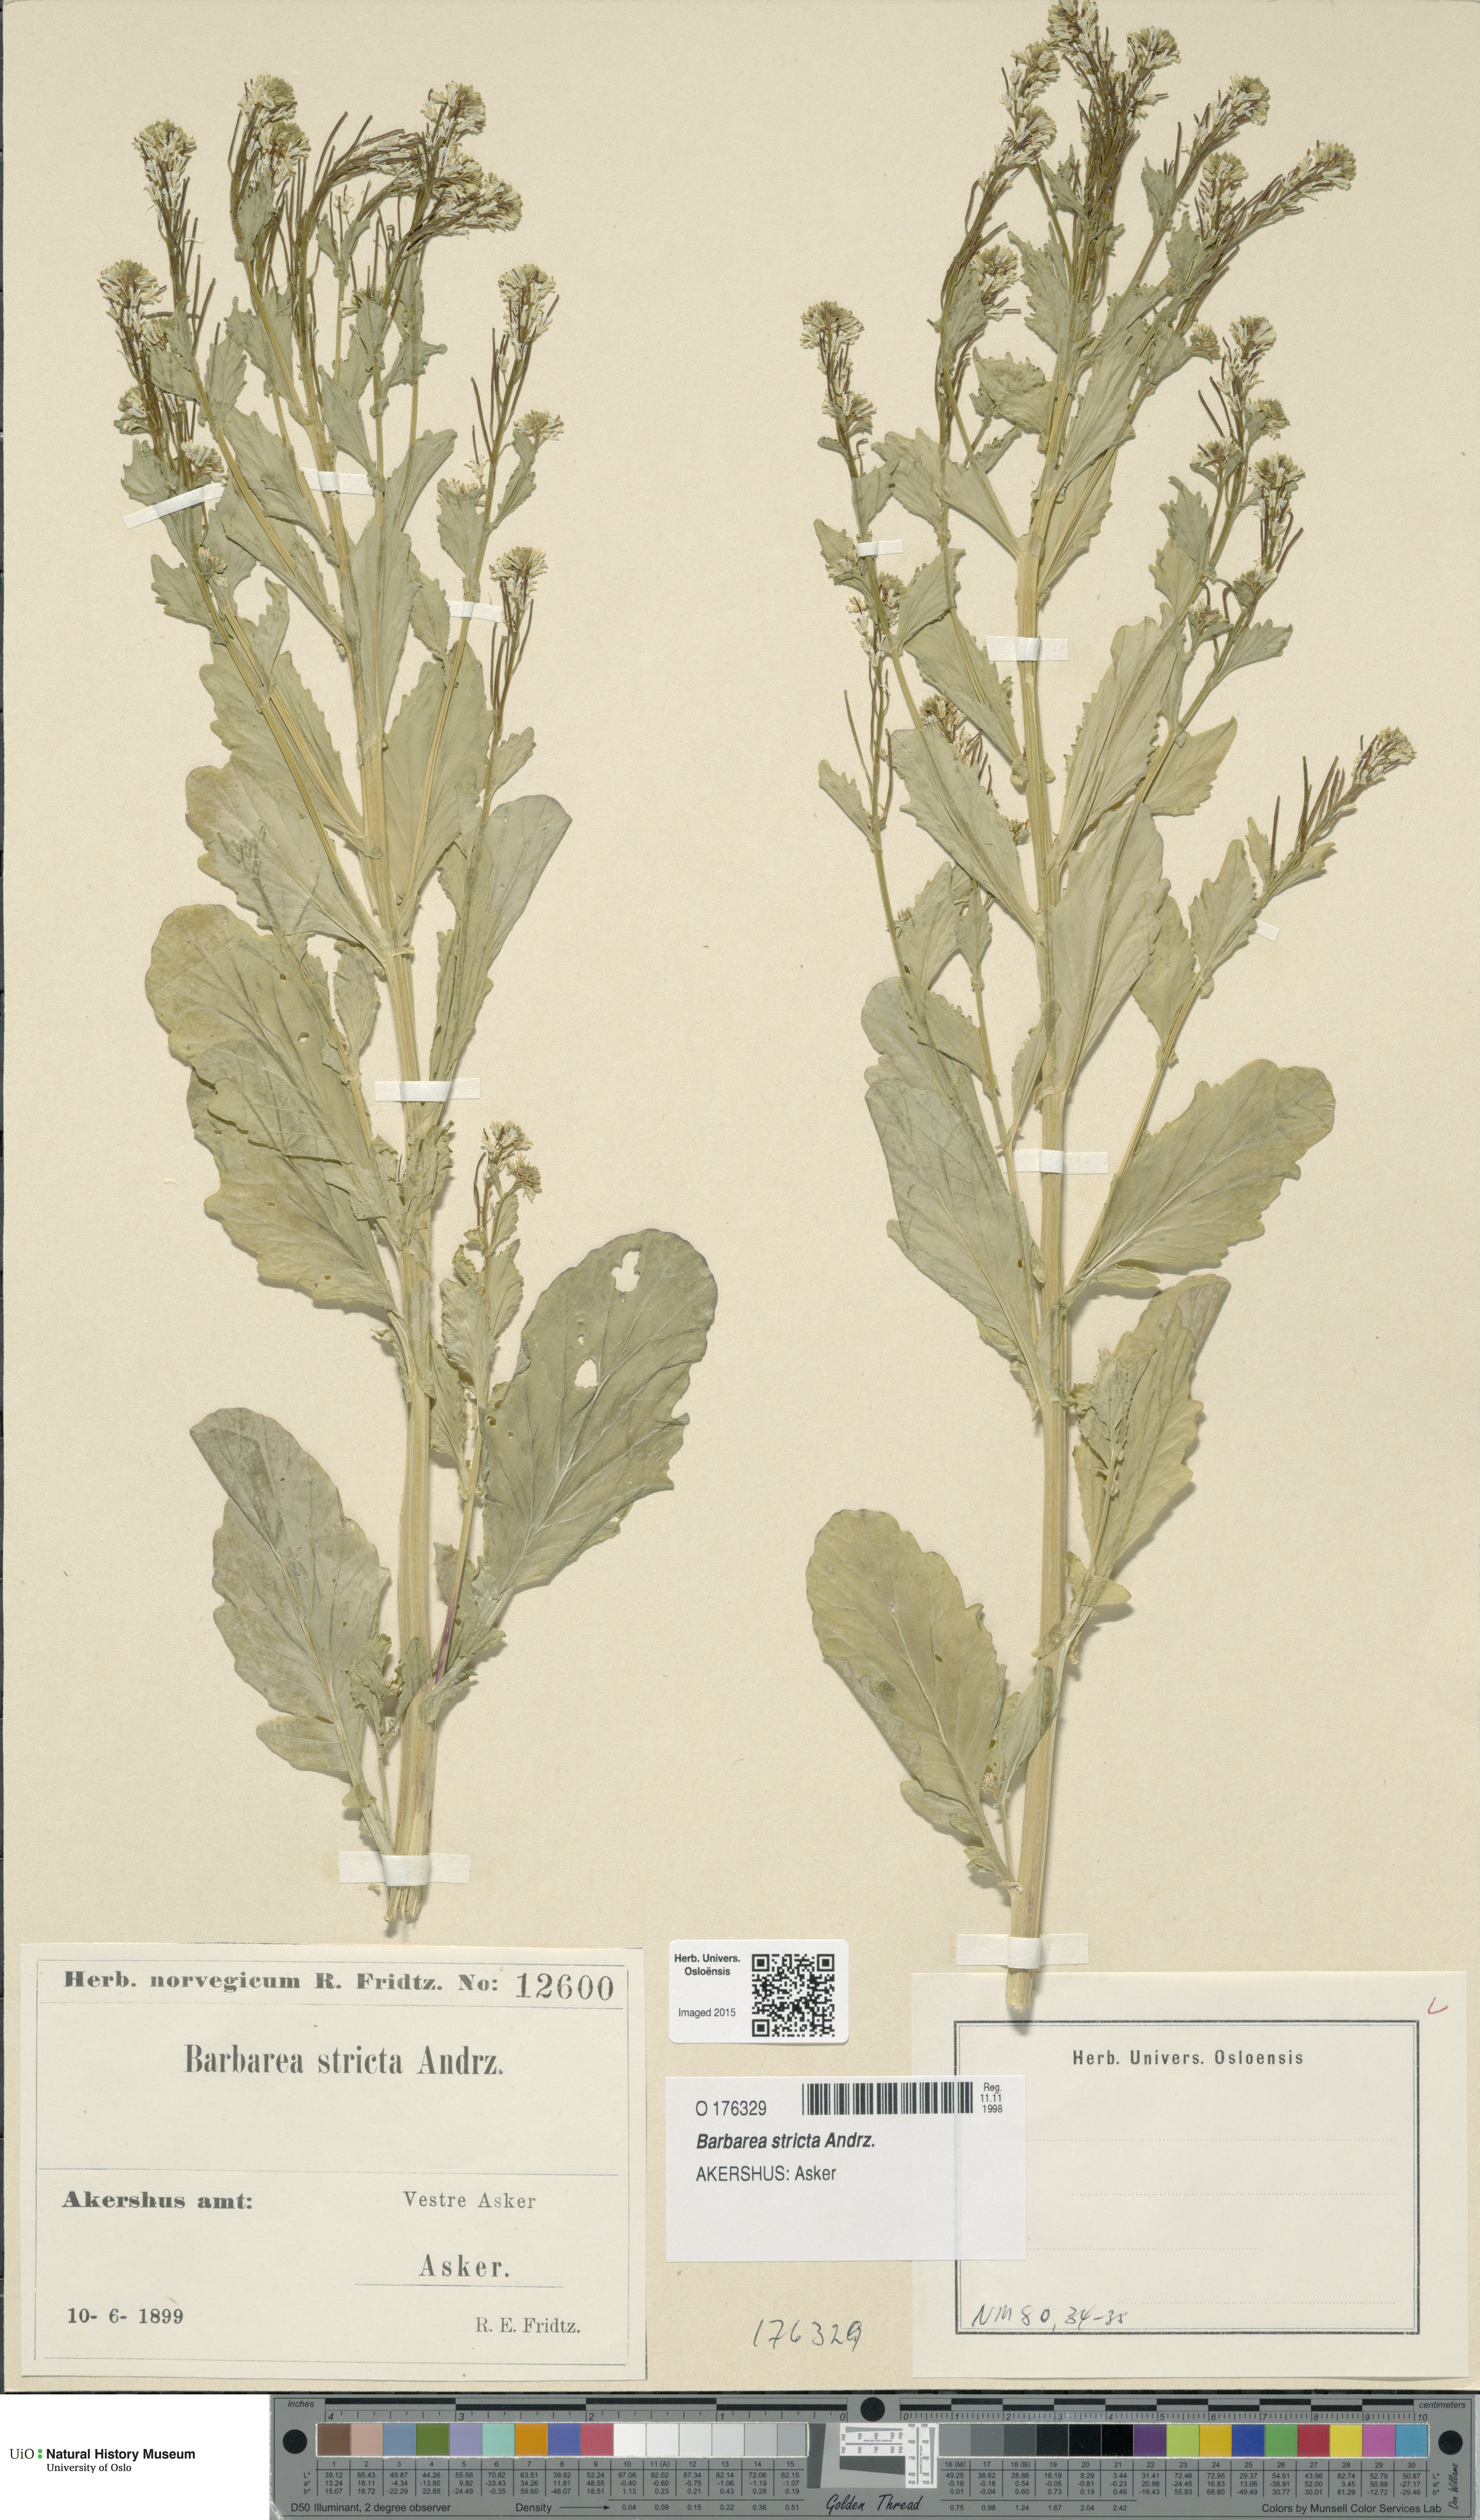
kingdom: Plantae
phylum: Tracheophyta
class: Magnoliopsida
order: Brassicales
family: Brassicaceae
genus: Barbarea
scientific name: Barbarea stricta
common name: Small-flowered winter-cress
